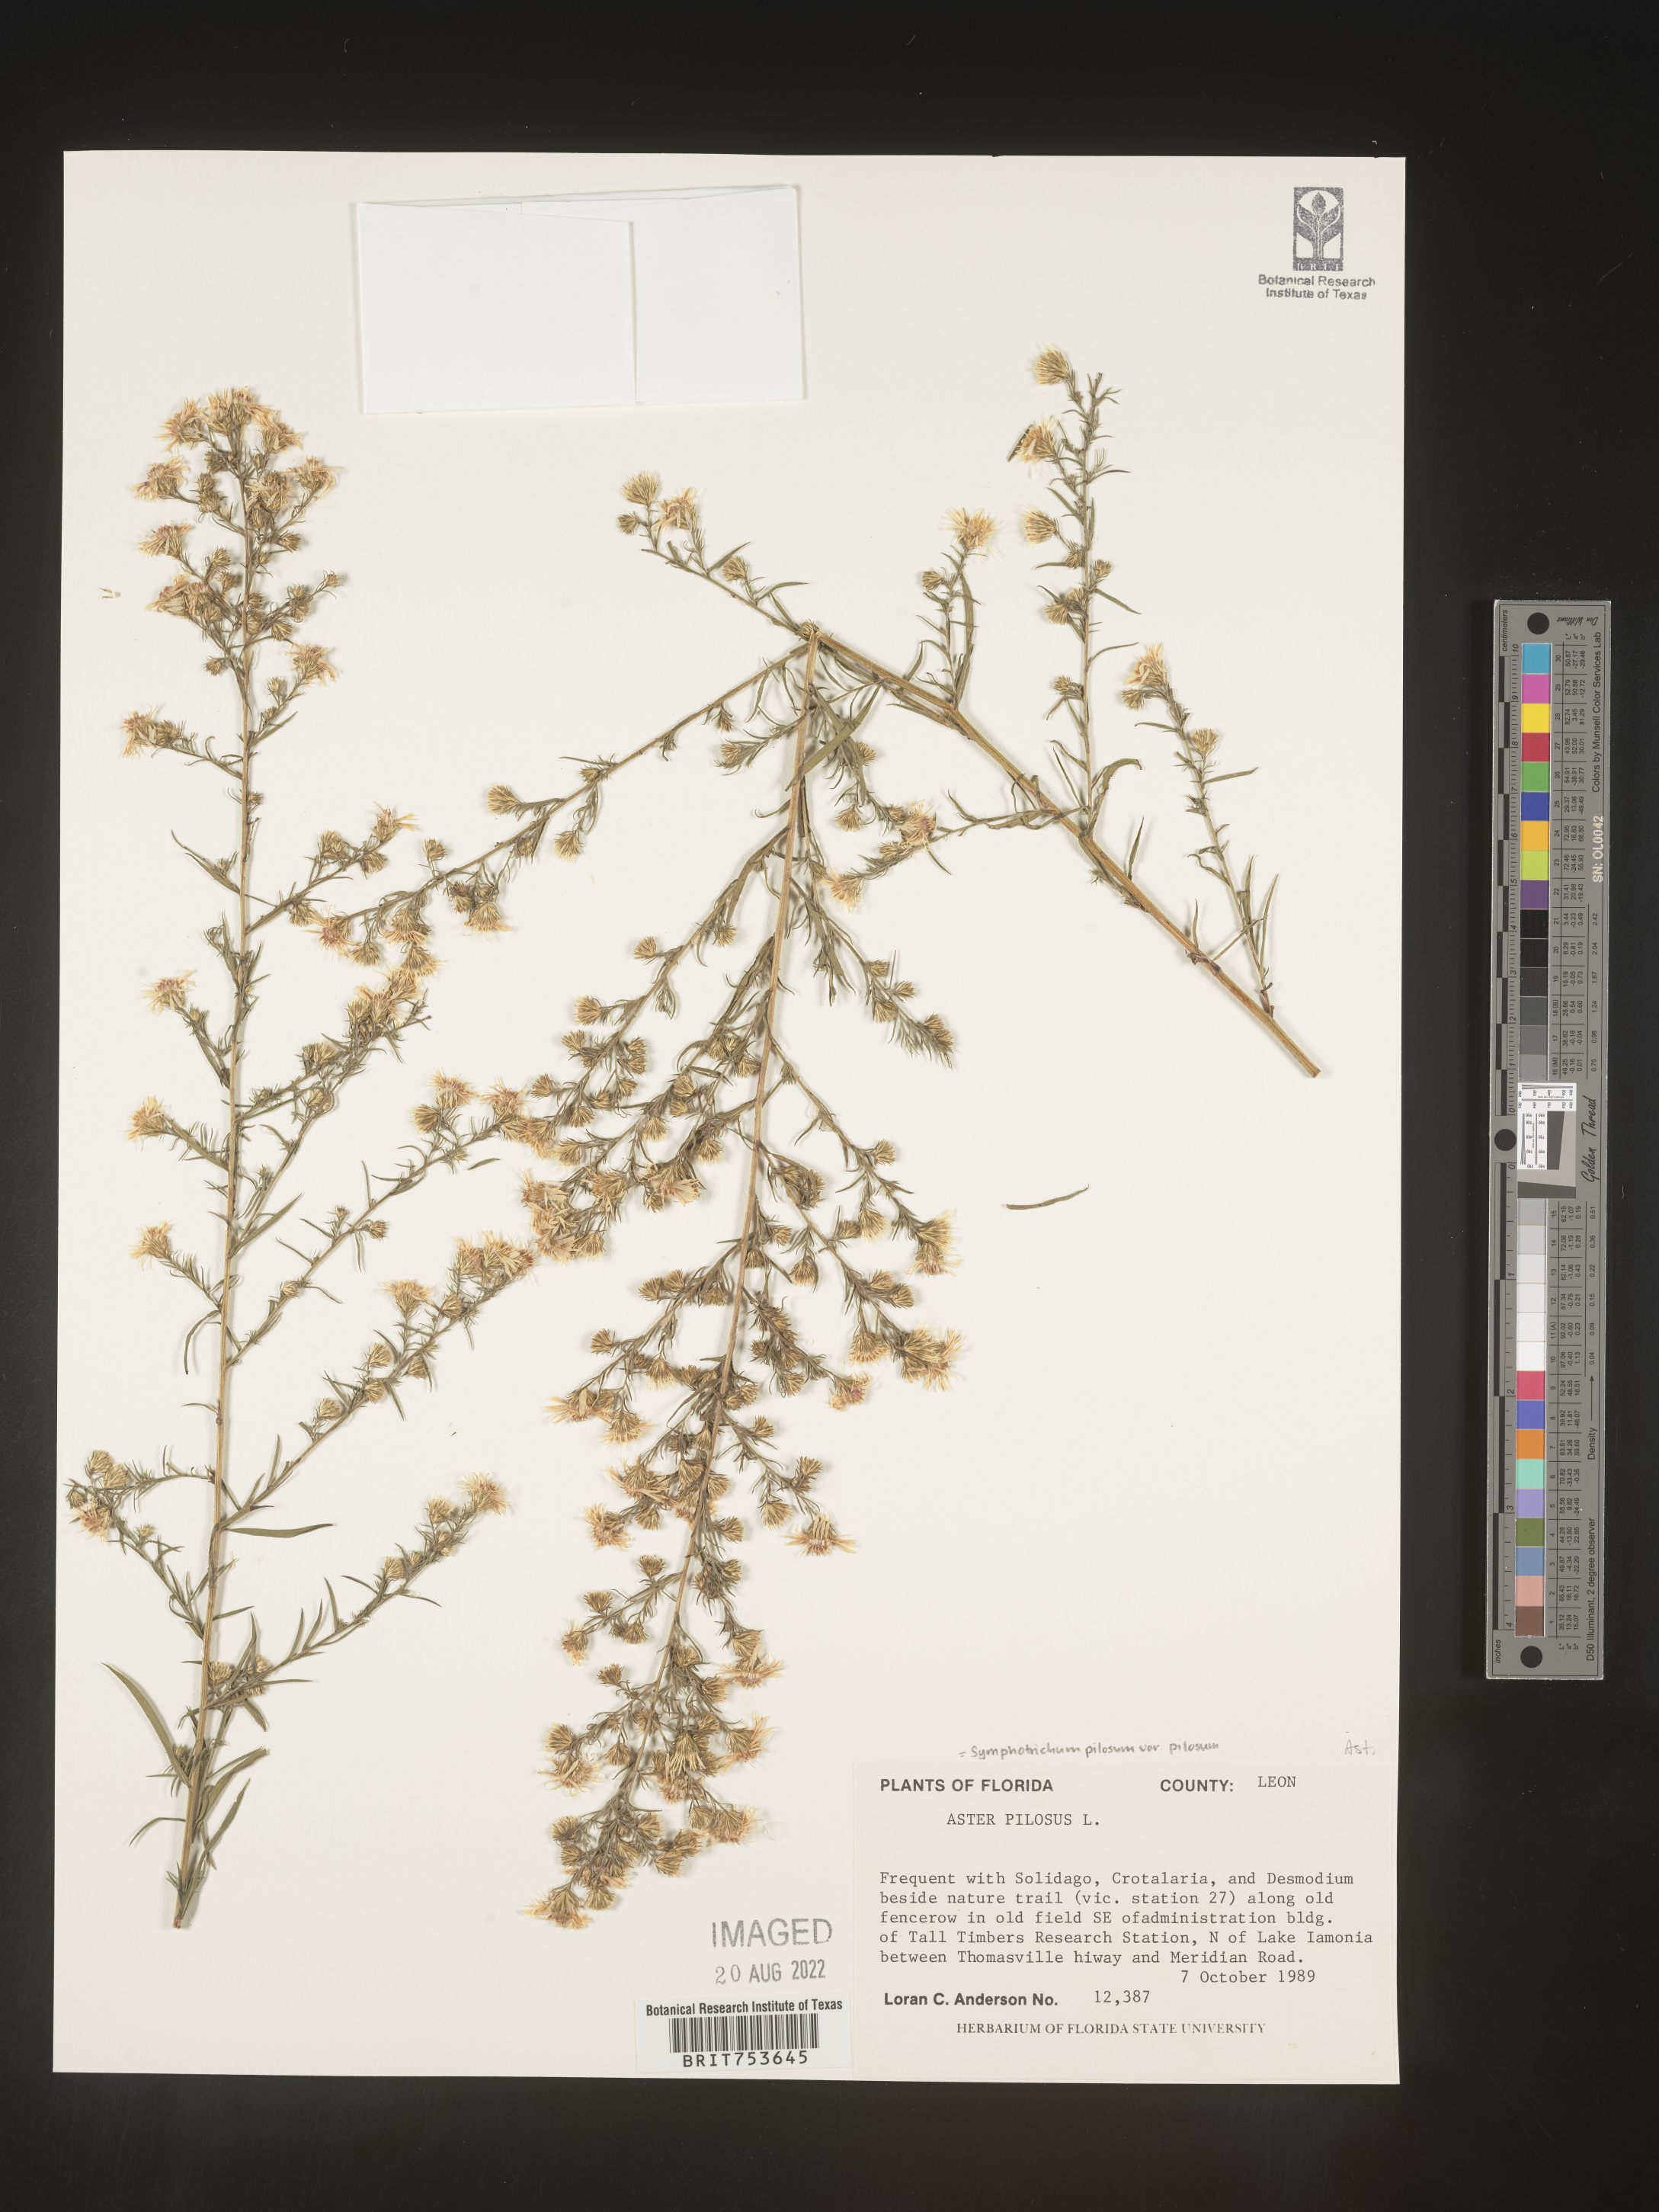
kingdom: Plantae
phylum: Tracheophyta
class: Magnoliopsida
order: Asterales
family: Asteraceae
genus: Symphyotrichum
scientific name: Symphyotrichum pilosum
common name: Awl aster
